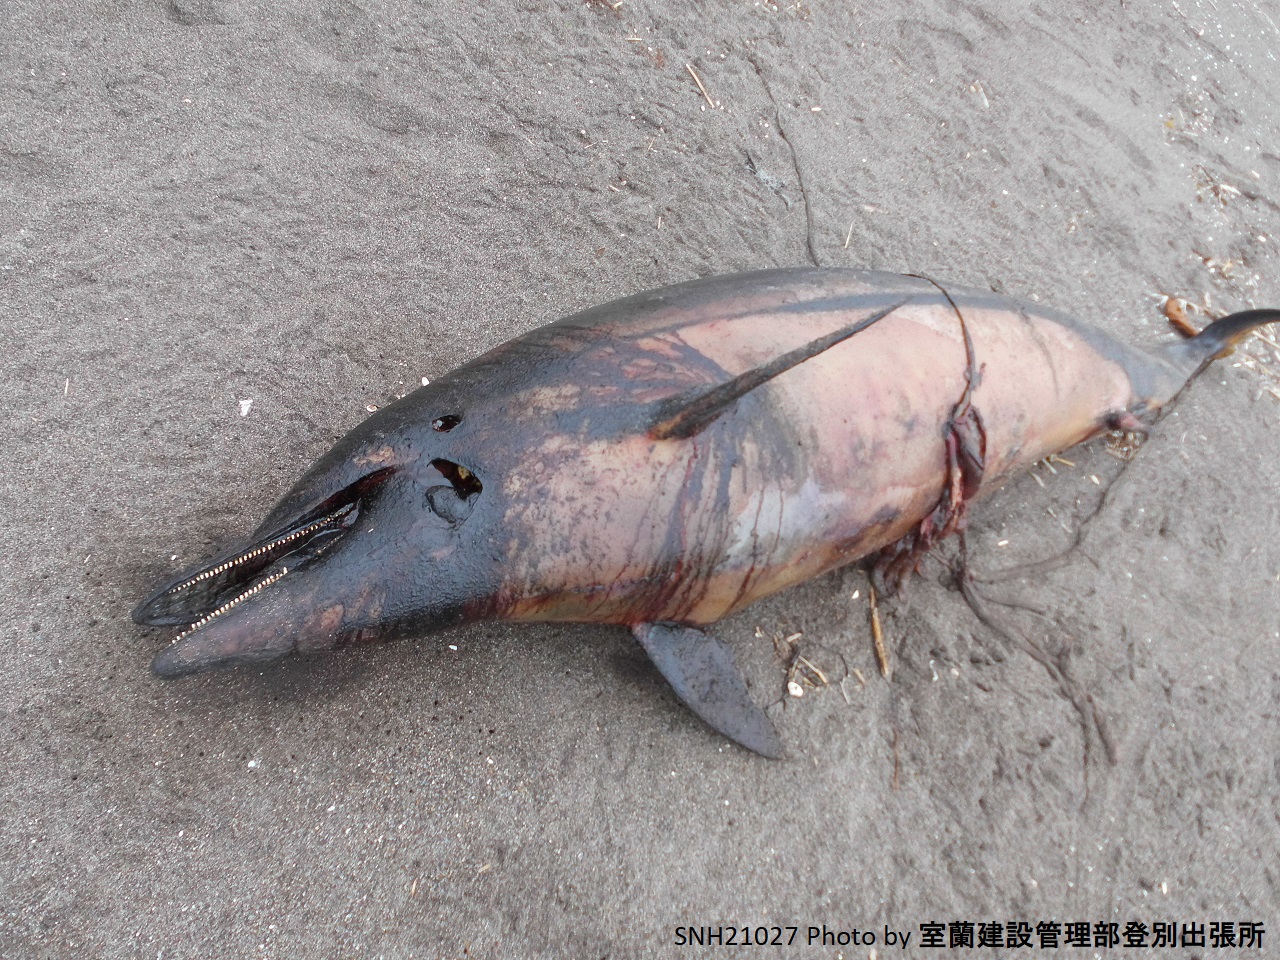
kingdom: Animalia
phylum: Chordata
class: Mammalia
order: Cetacea
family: Delphinidae
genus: Stenella
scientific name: Stenella coeruleoalba
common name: Striped dolphin
